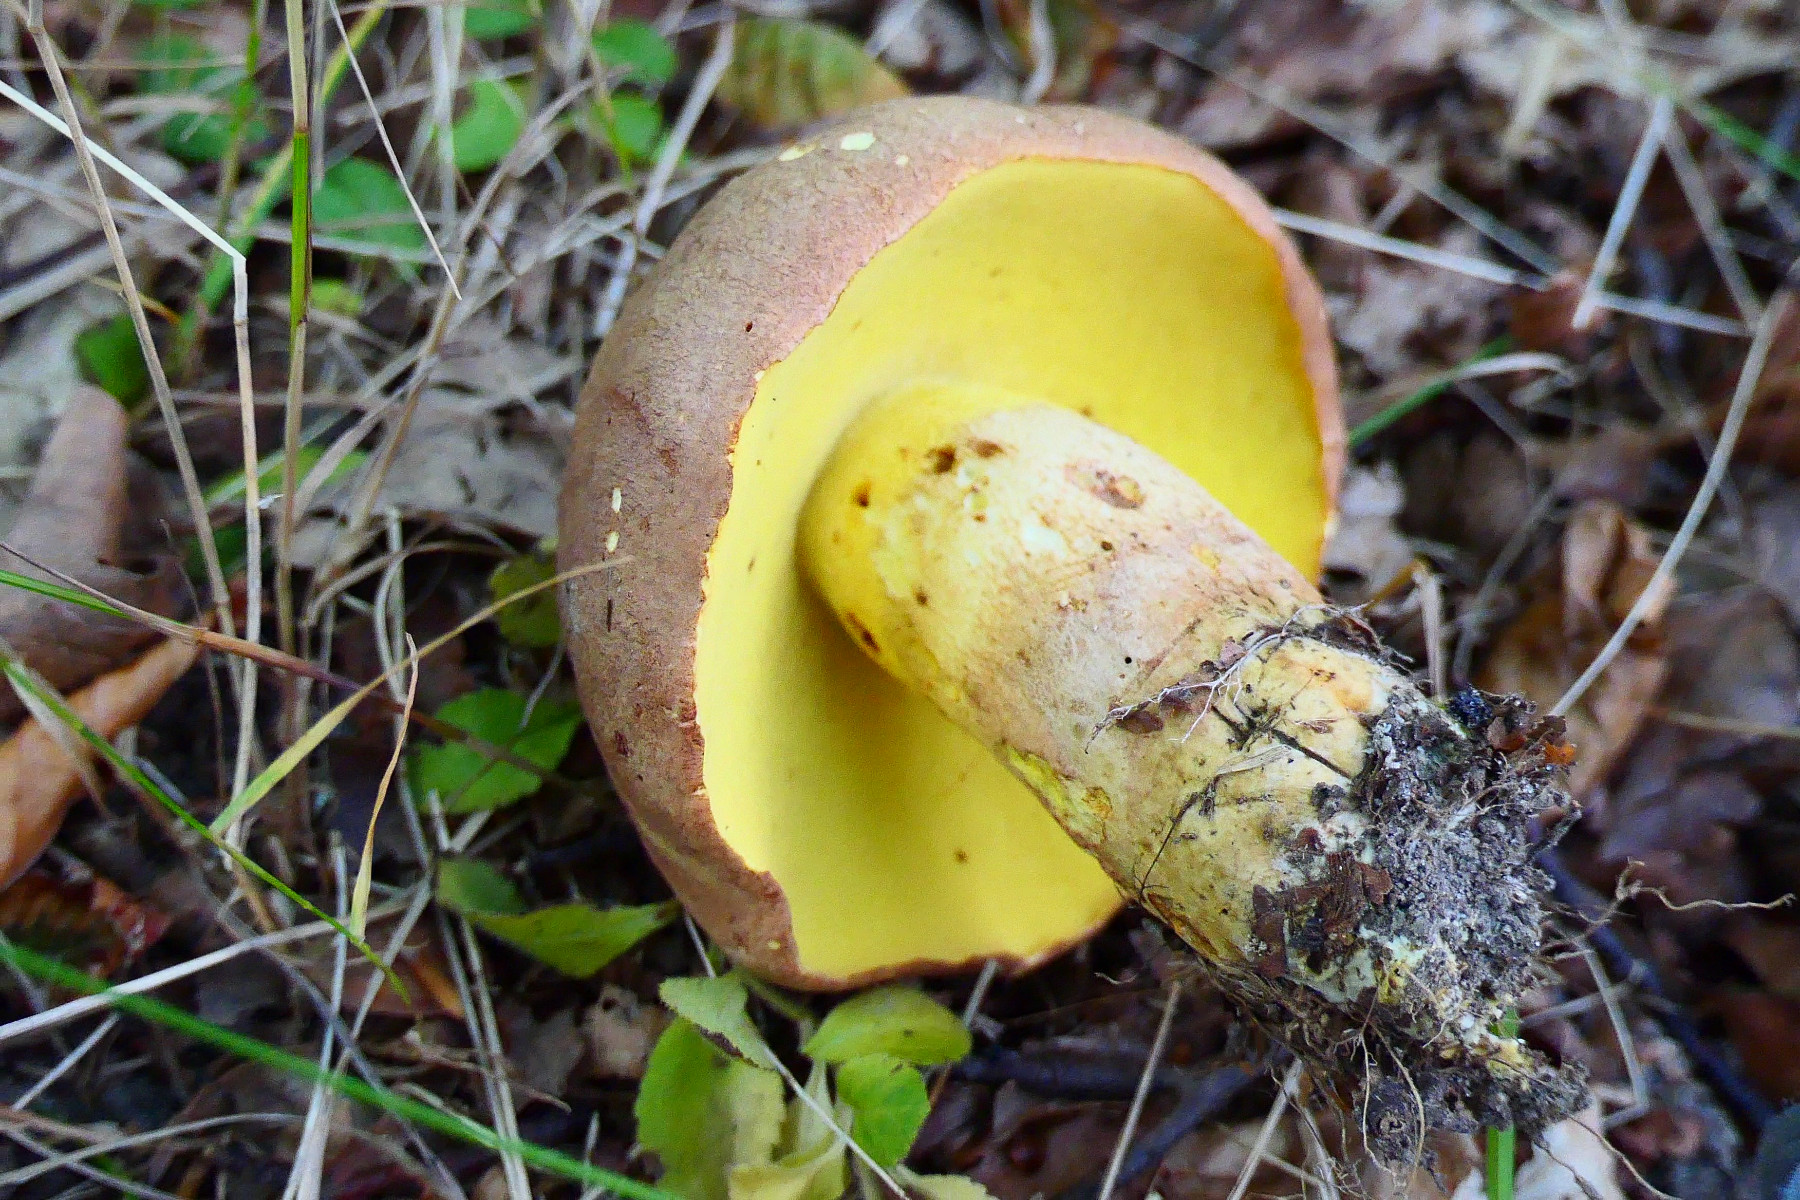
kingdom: Fungi
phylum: Basidiomycota
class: Agaricomycetes
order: Boletales
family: Boletaceae
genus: Butyriboletus
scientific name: Butyriboletus appendiculatus
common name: tenstokket rørhat
